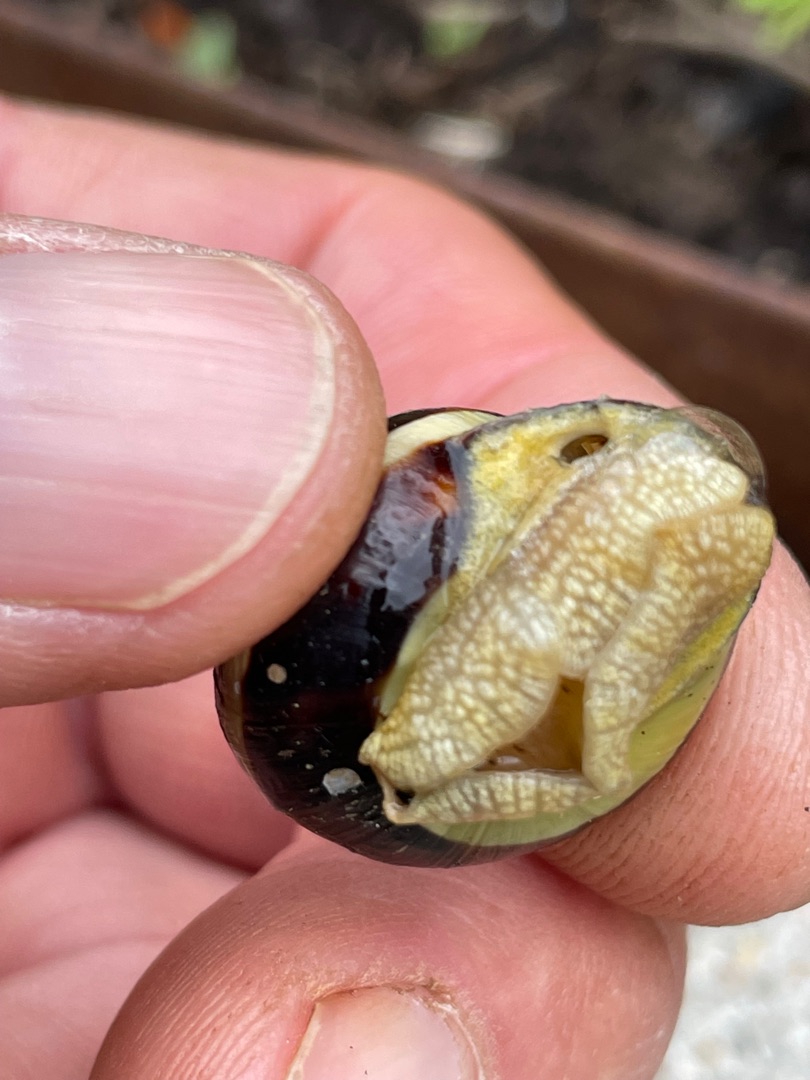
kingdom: Animalia
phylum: Mollusca
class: Gastropoda
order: Stylommatophora
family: Helicidae
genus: Cepaea
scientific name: Cepaea nemoralis
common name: Lundsnegl
